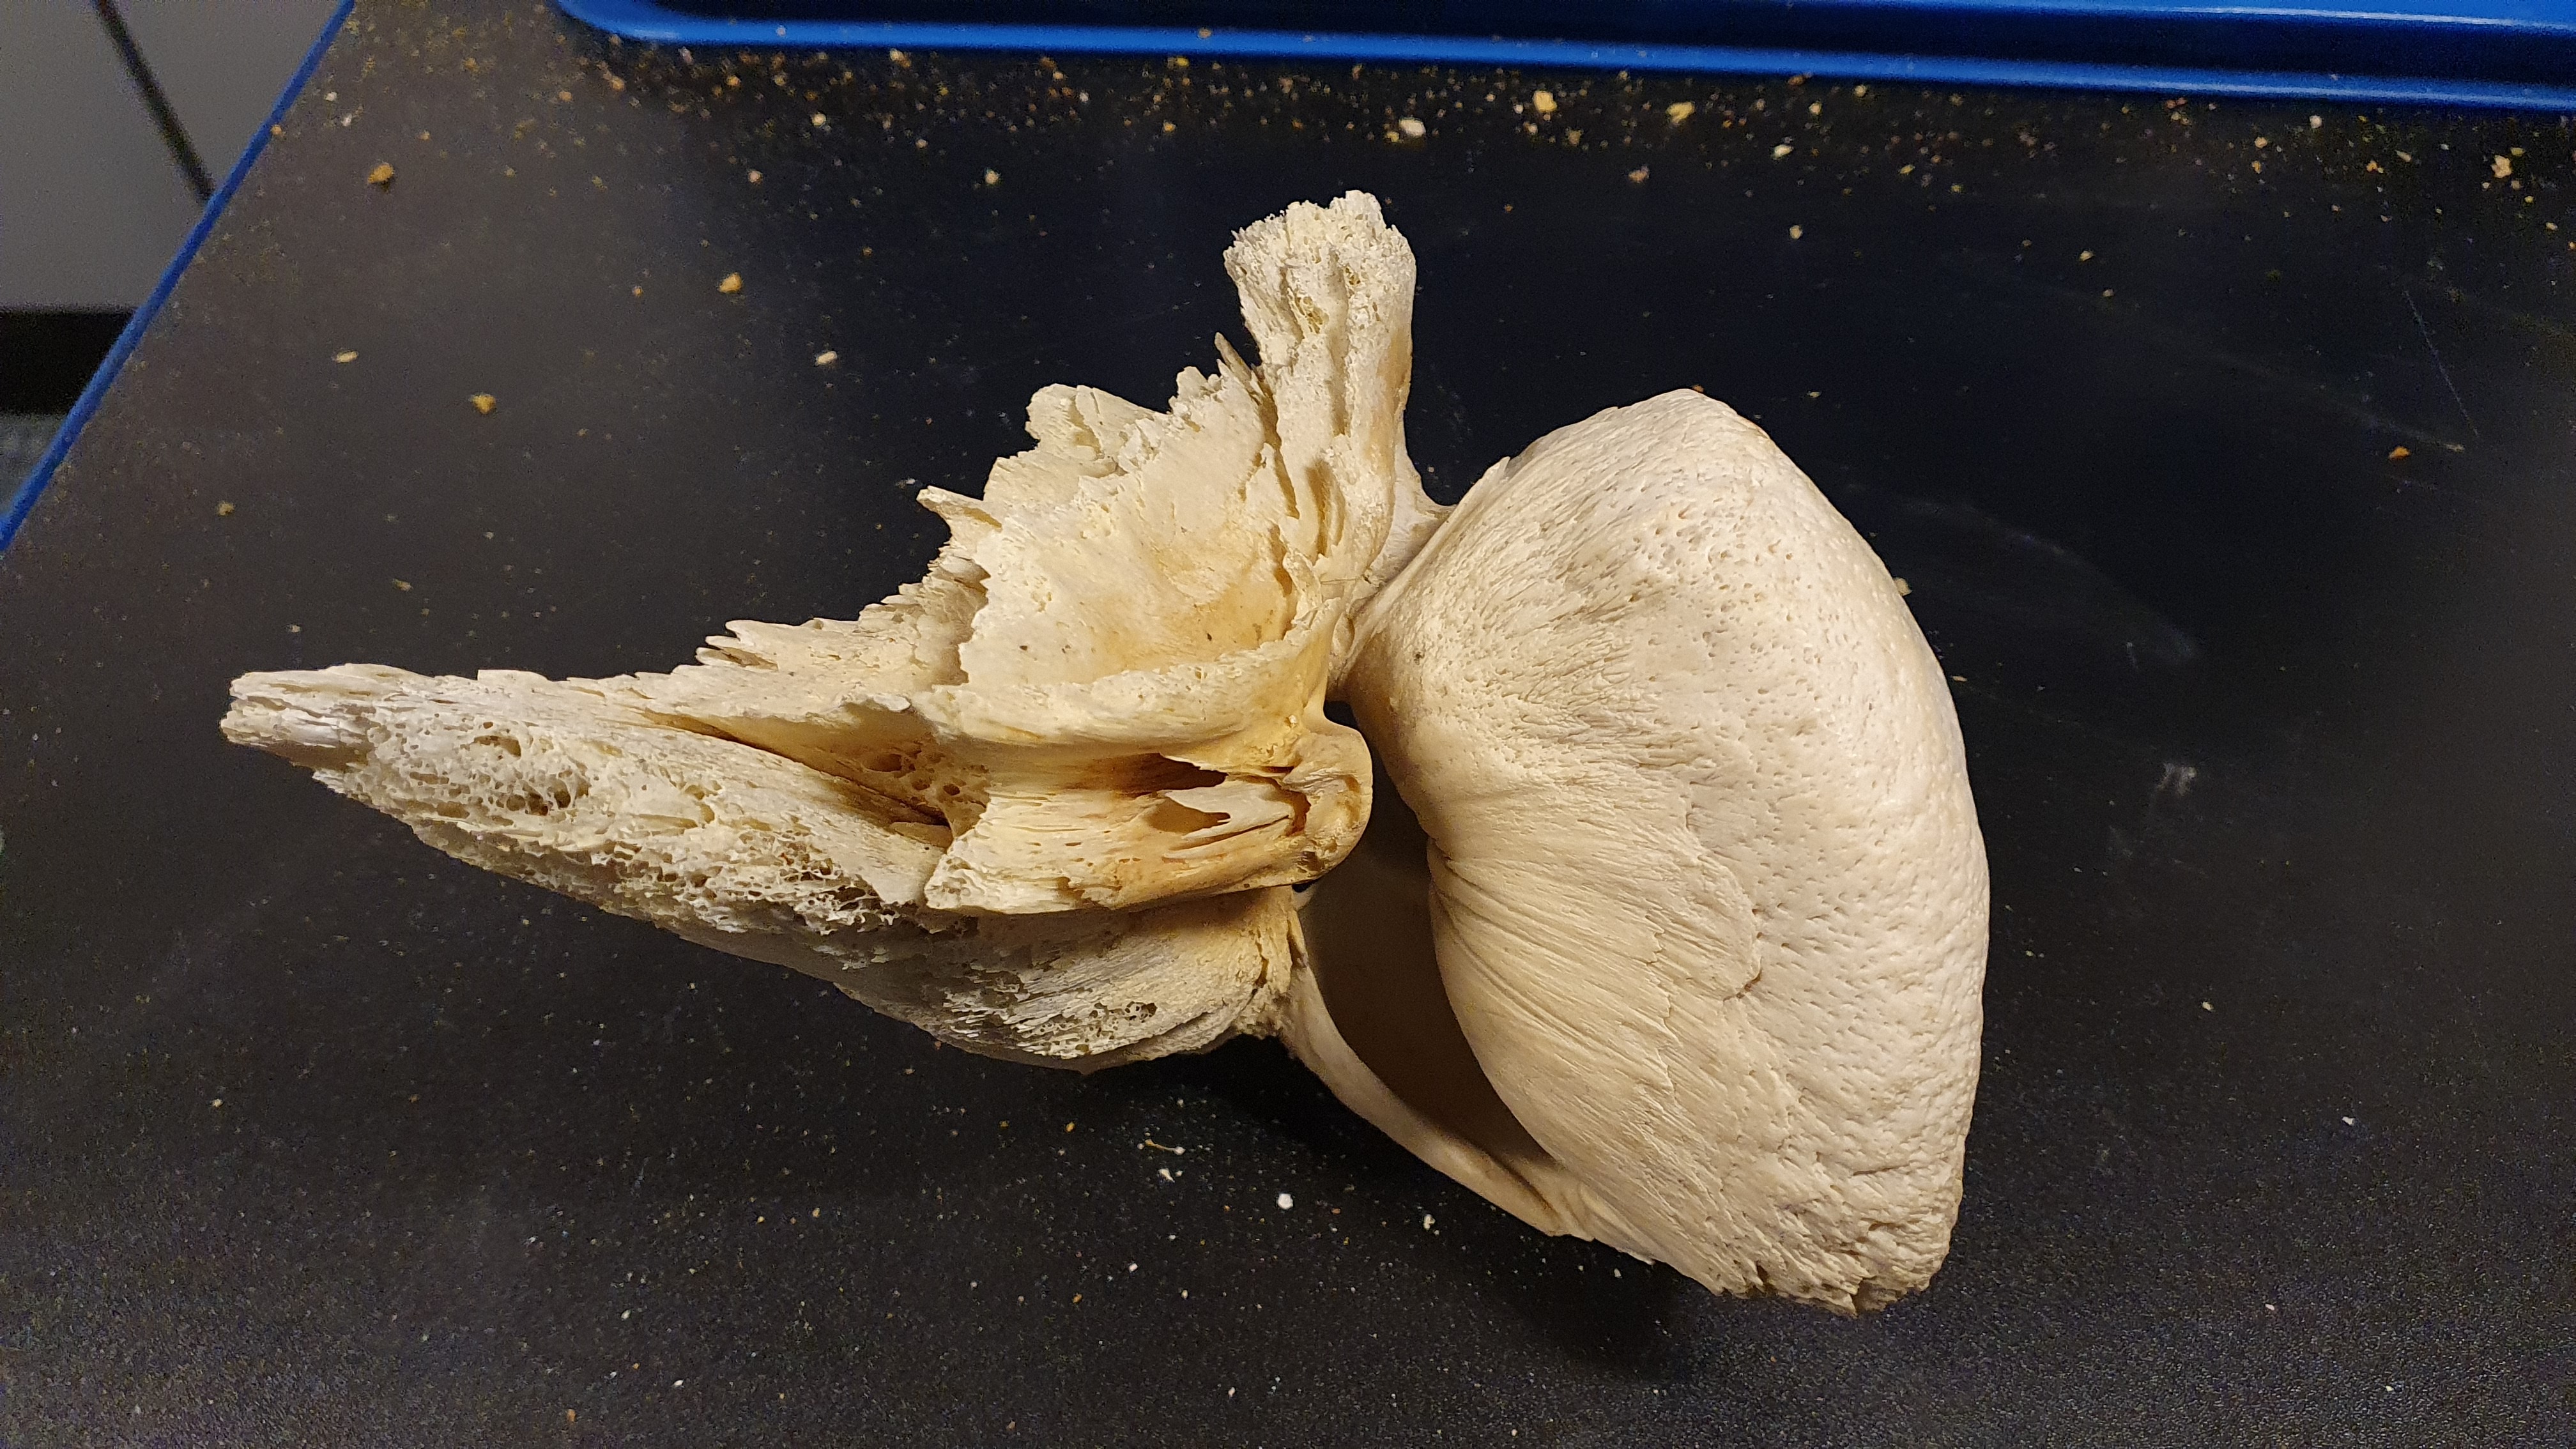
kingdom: Animalia
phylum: Chordata
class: Mammalia
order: Cetacea
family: Balaenidae
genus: Eubalaena
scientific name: Eubalaena glacialis
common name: North atlantic right whale
